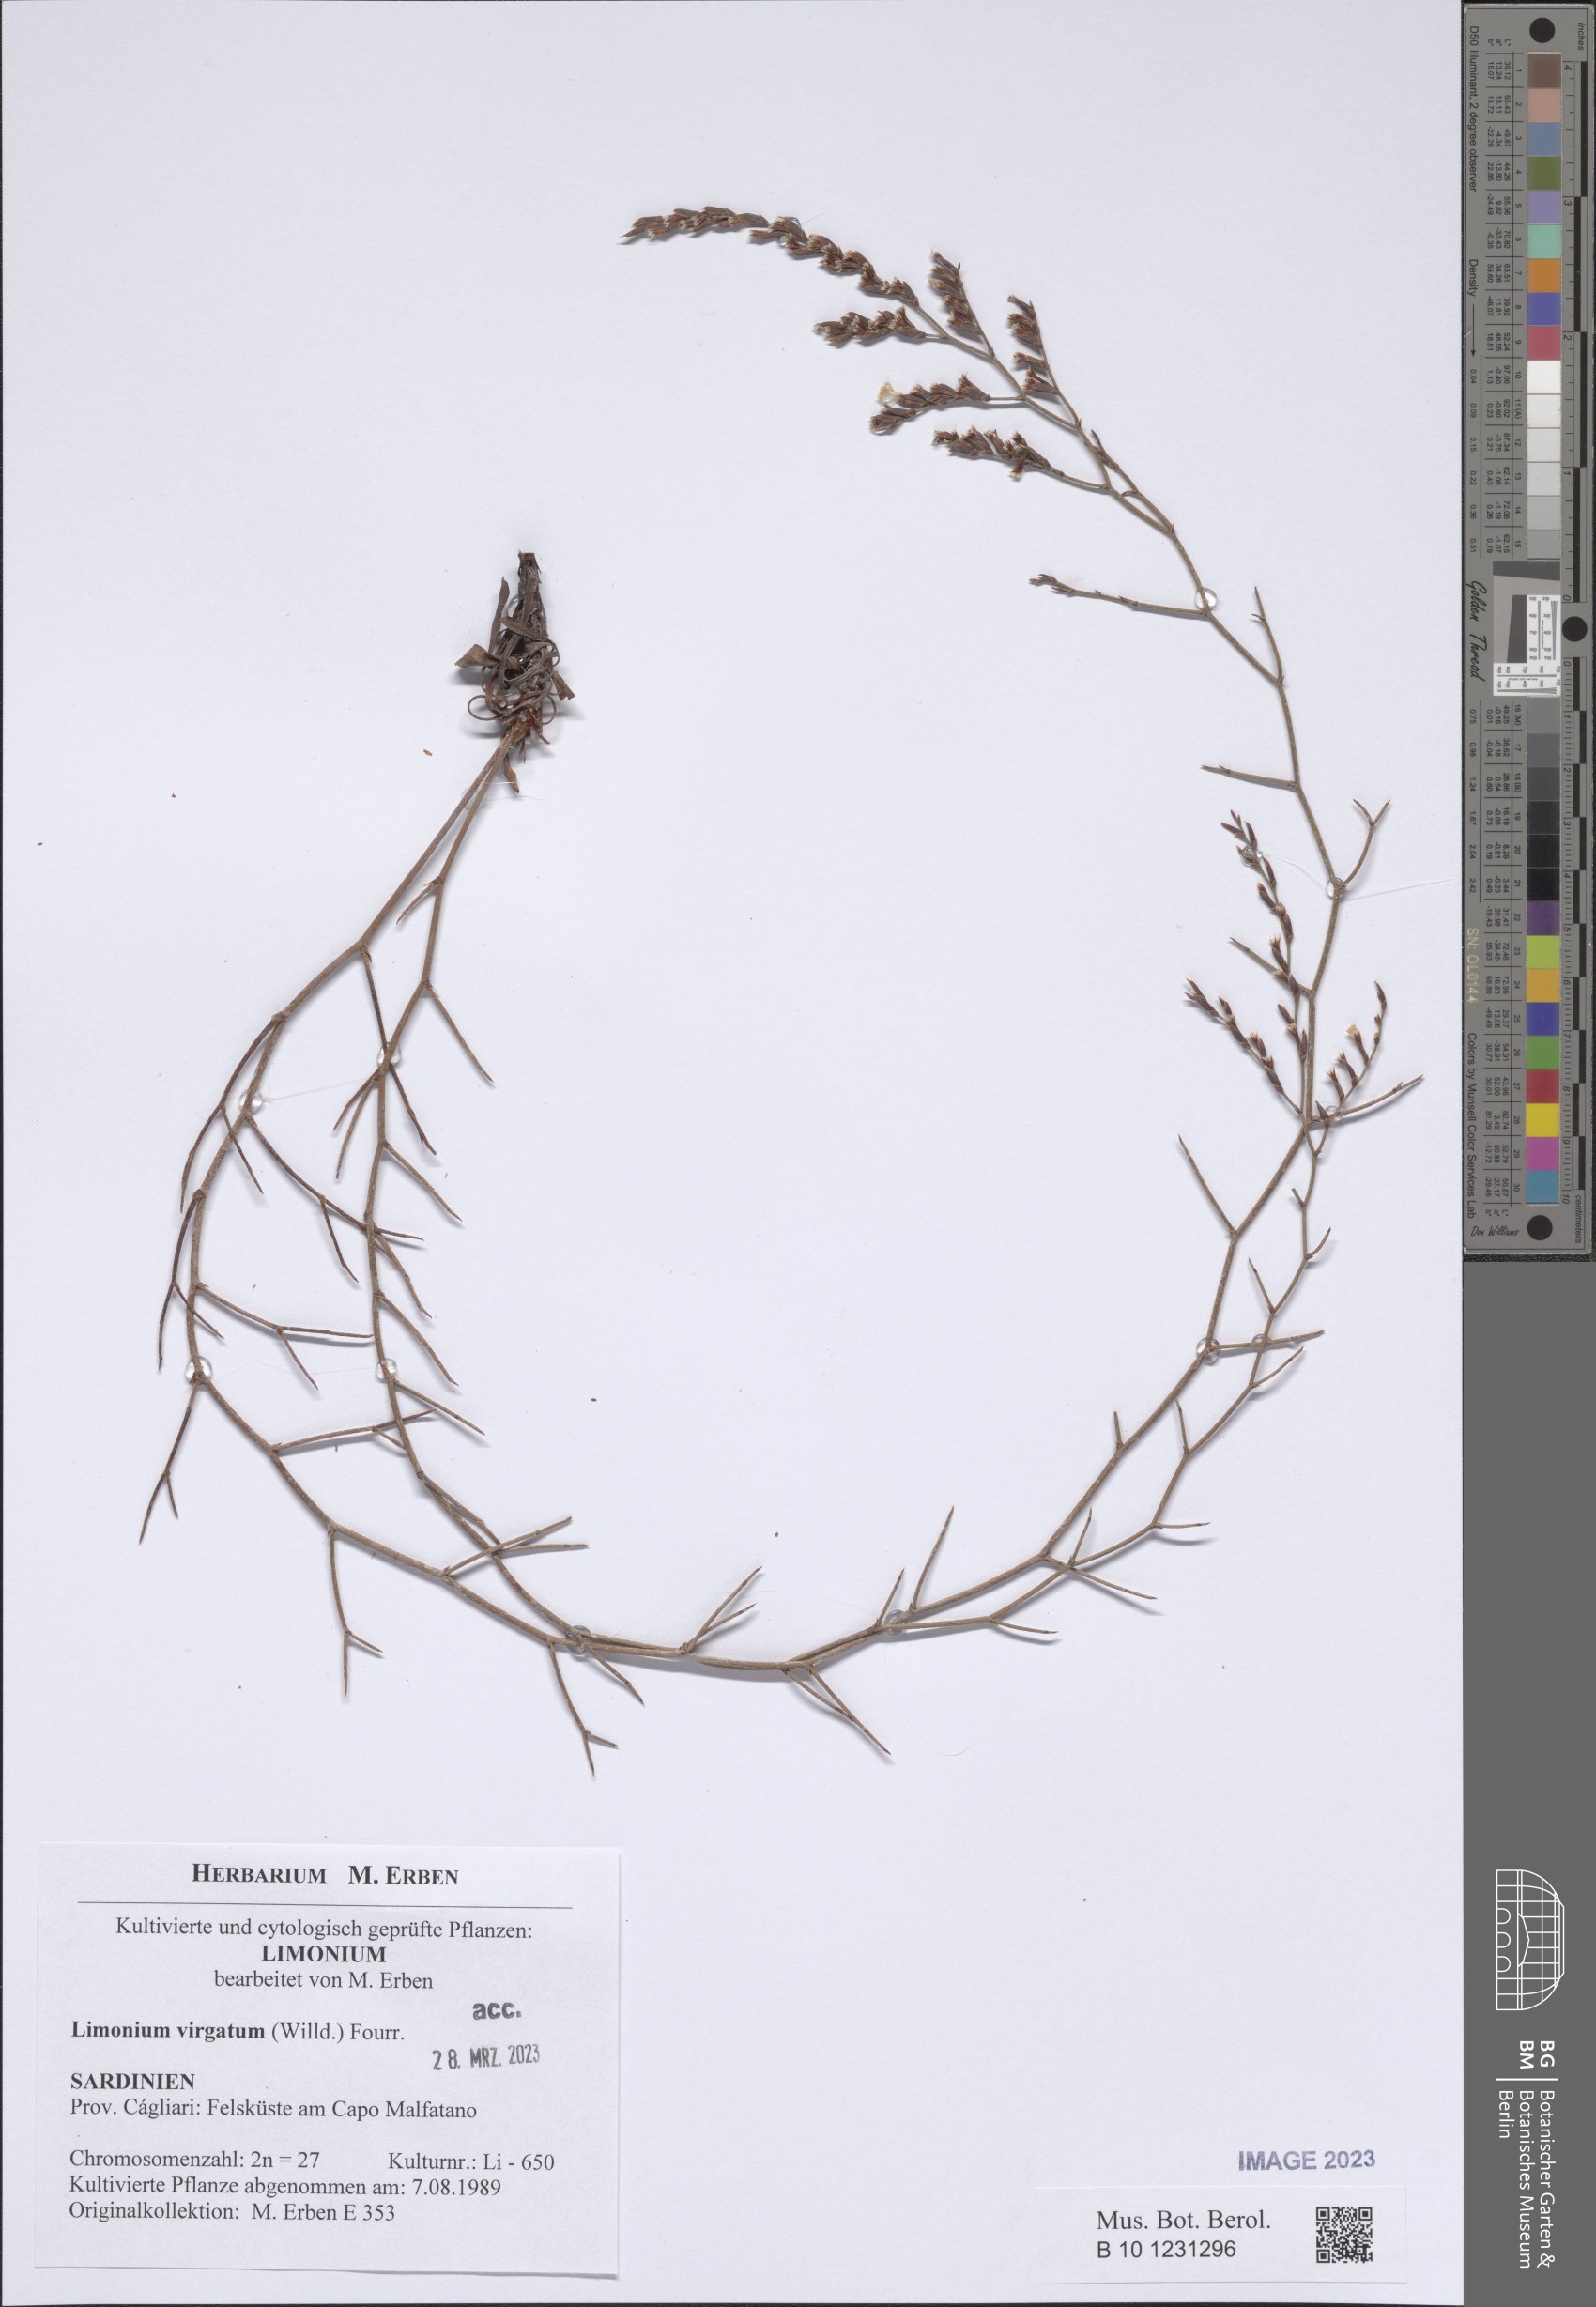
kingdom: Plantae
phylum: Tracheophyta
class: Magnoliopsida
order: Caryophyllales
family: Plumbaginaceae
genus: Limonium
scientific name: Limonium virgatum
